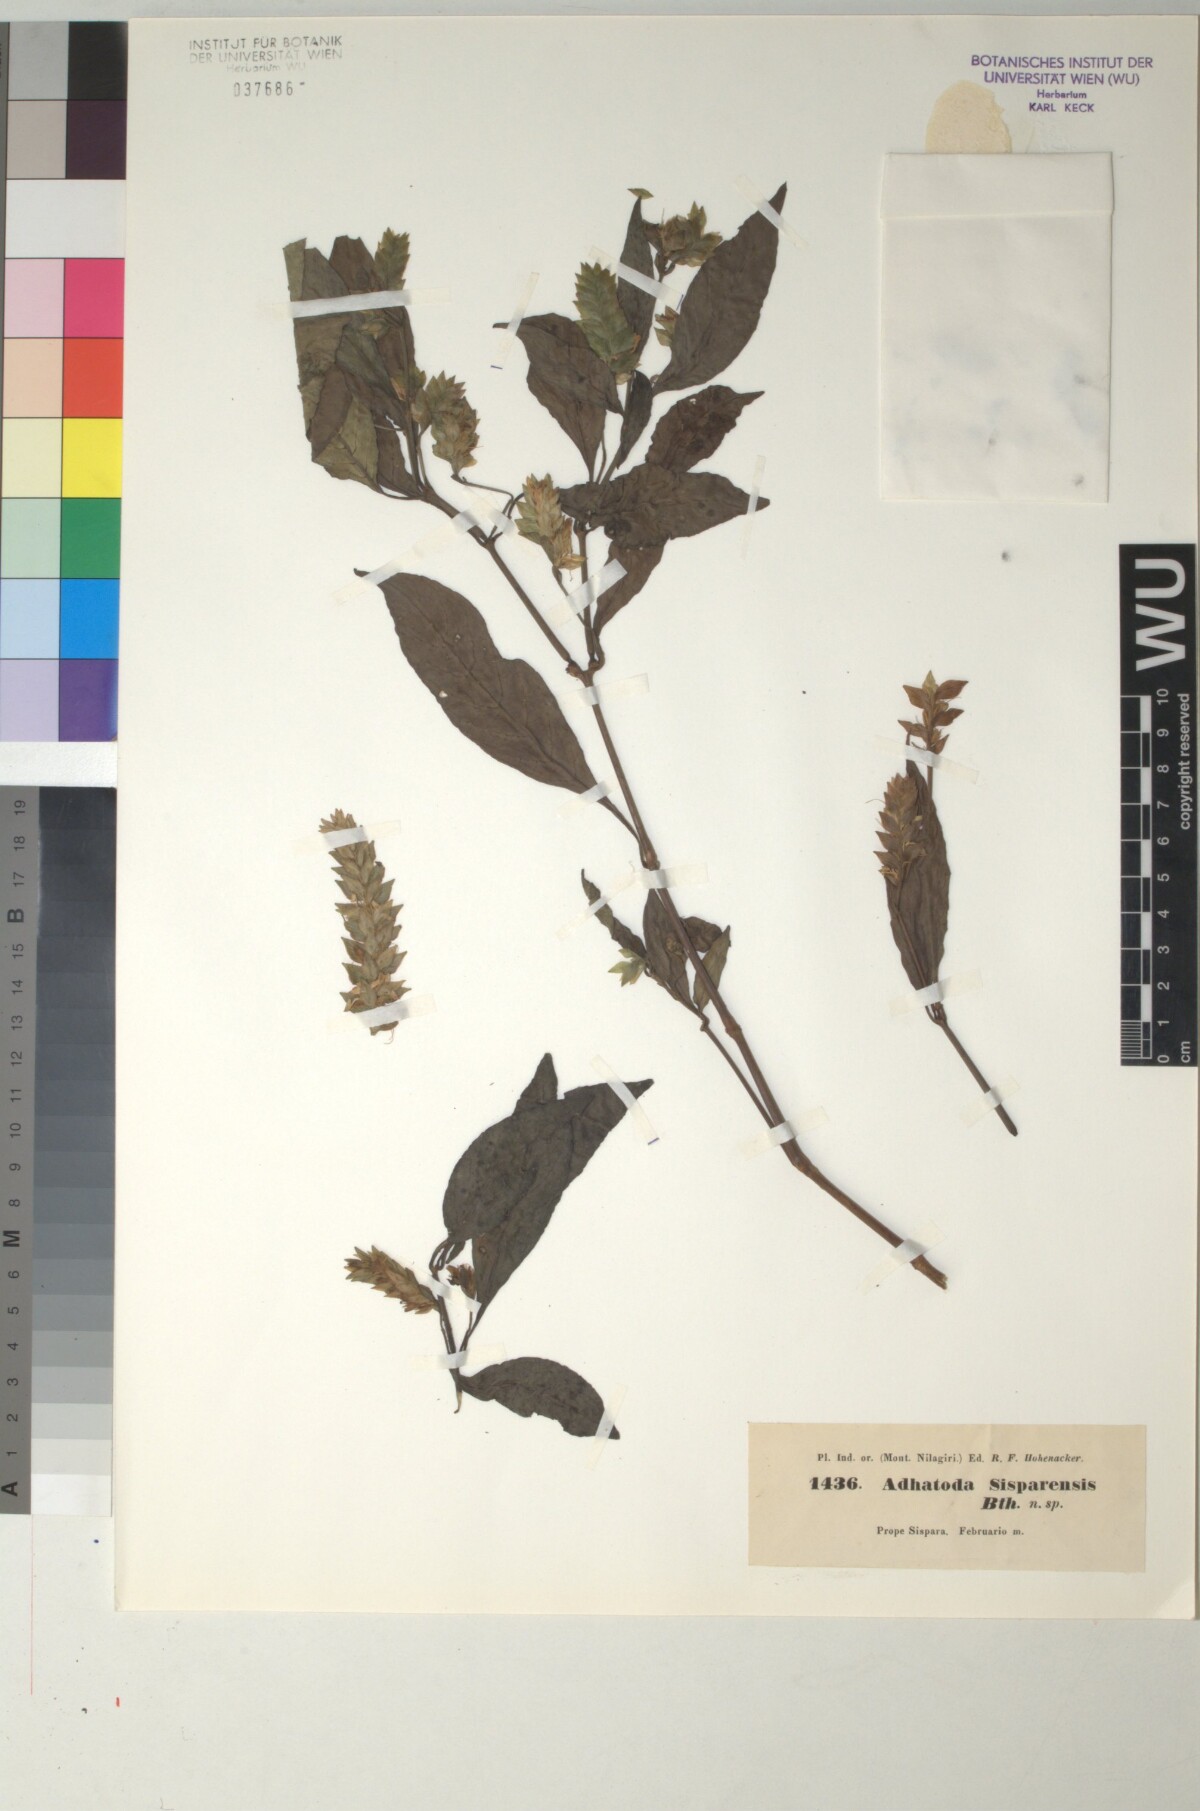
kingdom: Plantae
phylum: Tracheophyta
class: Magnoliopsida
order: Lamiales
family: Acanthaceae
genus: Rungia
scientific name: Rungia sisparensis
